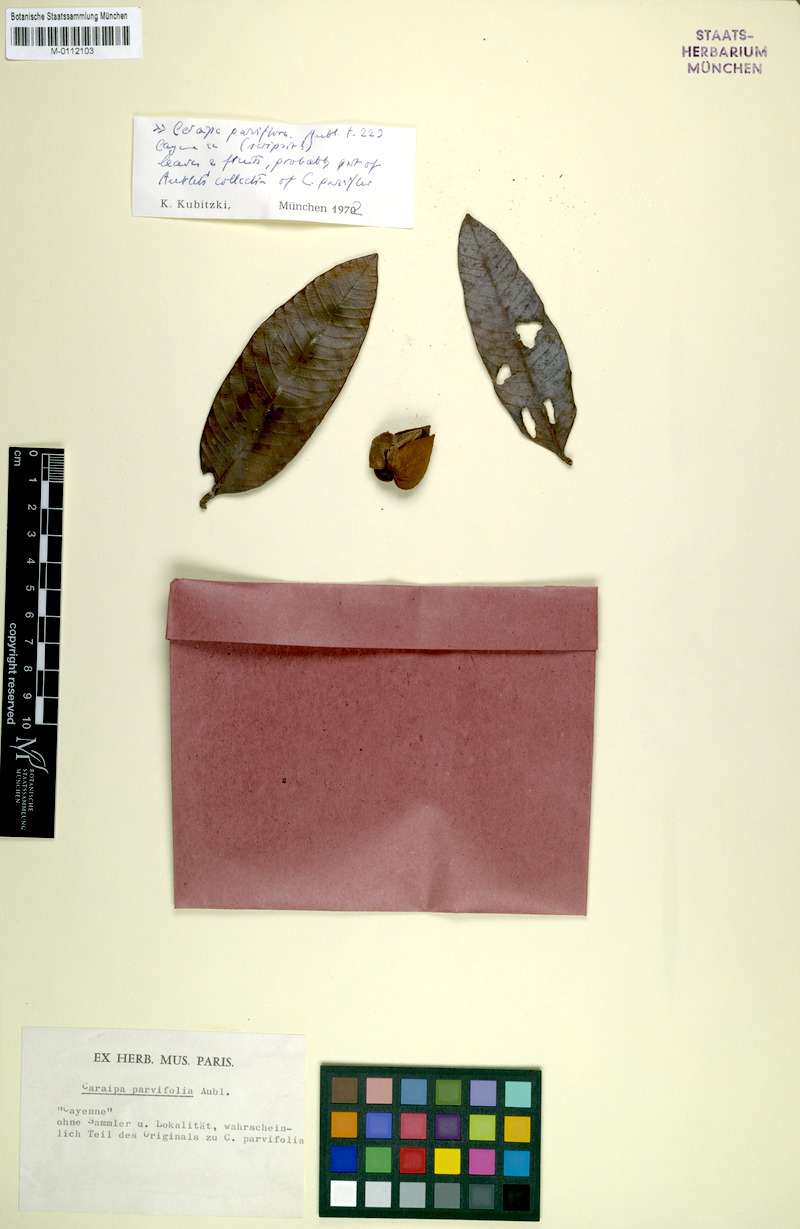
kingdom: Plantae
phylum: Tracheophyta
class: Magnoliopsida
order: Malpighiales
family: Calophyllaceae
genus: Caraipa
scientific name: Caraipa parvifolia
